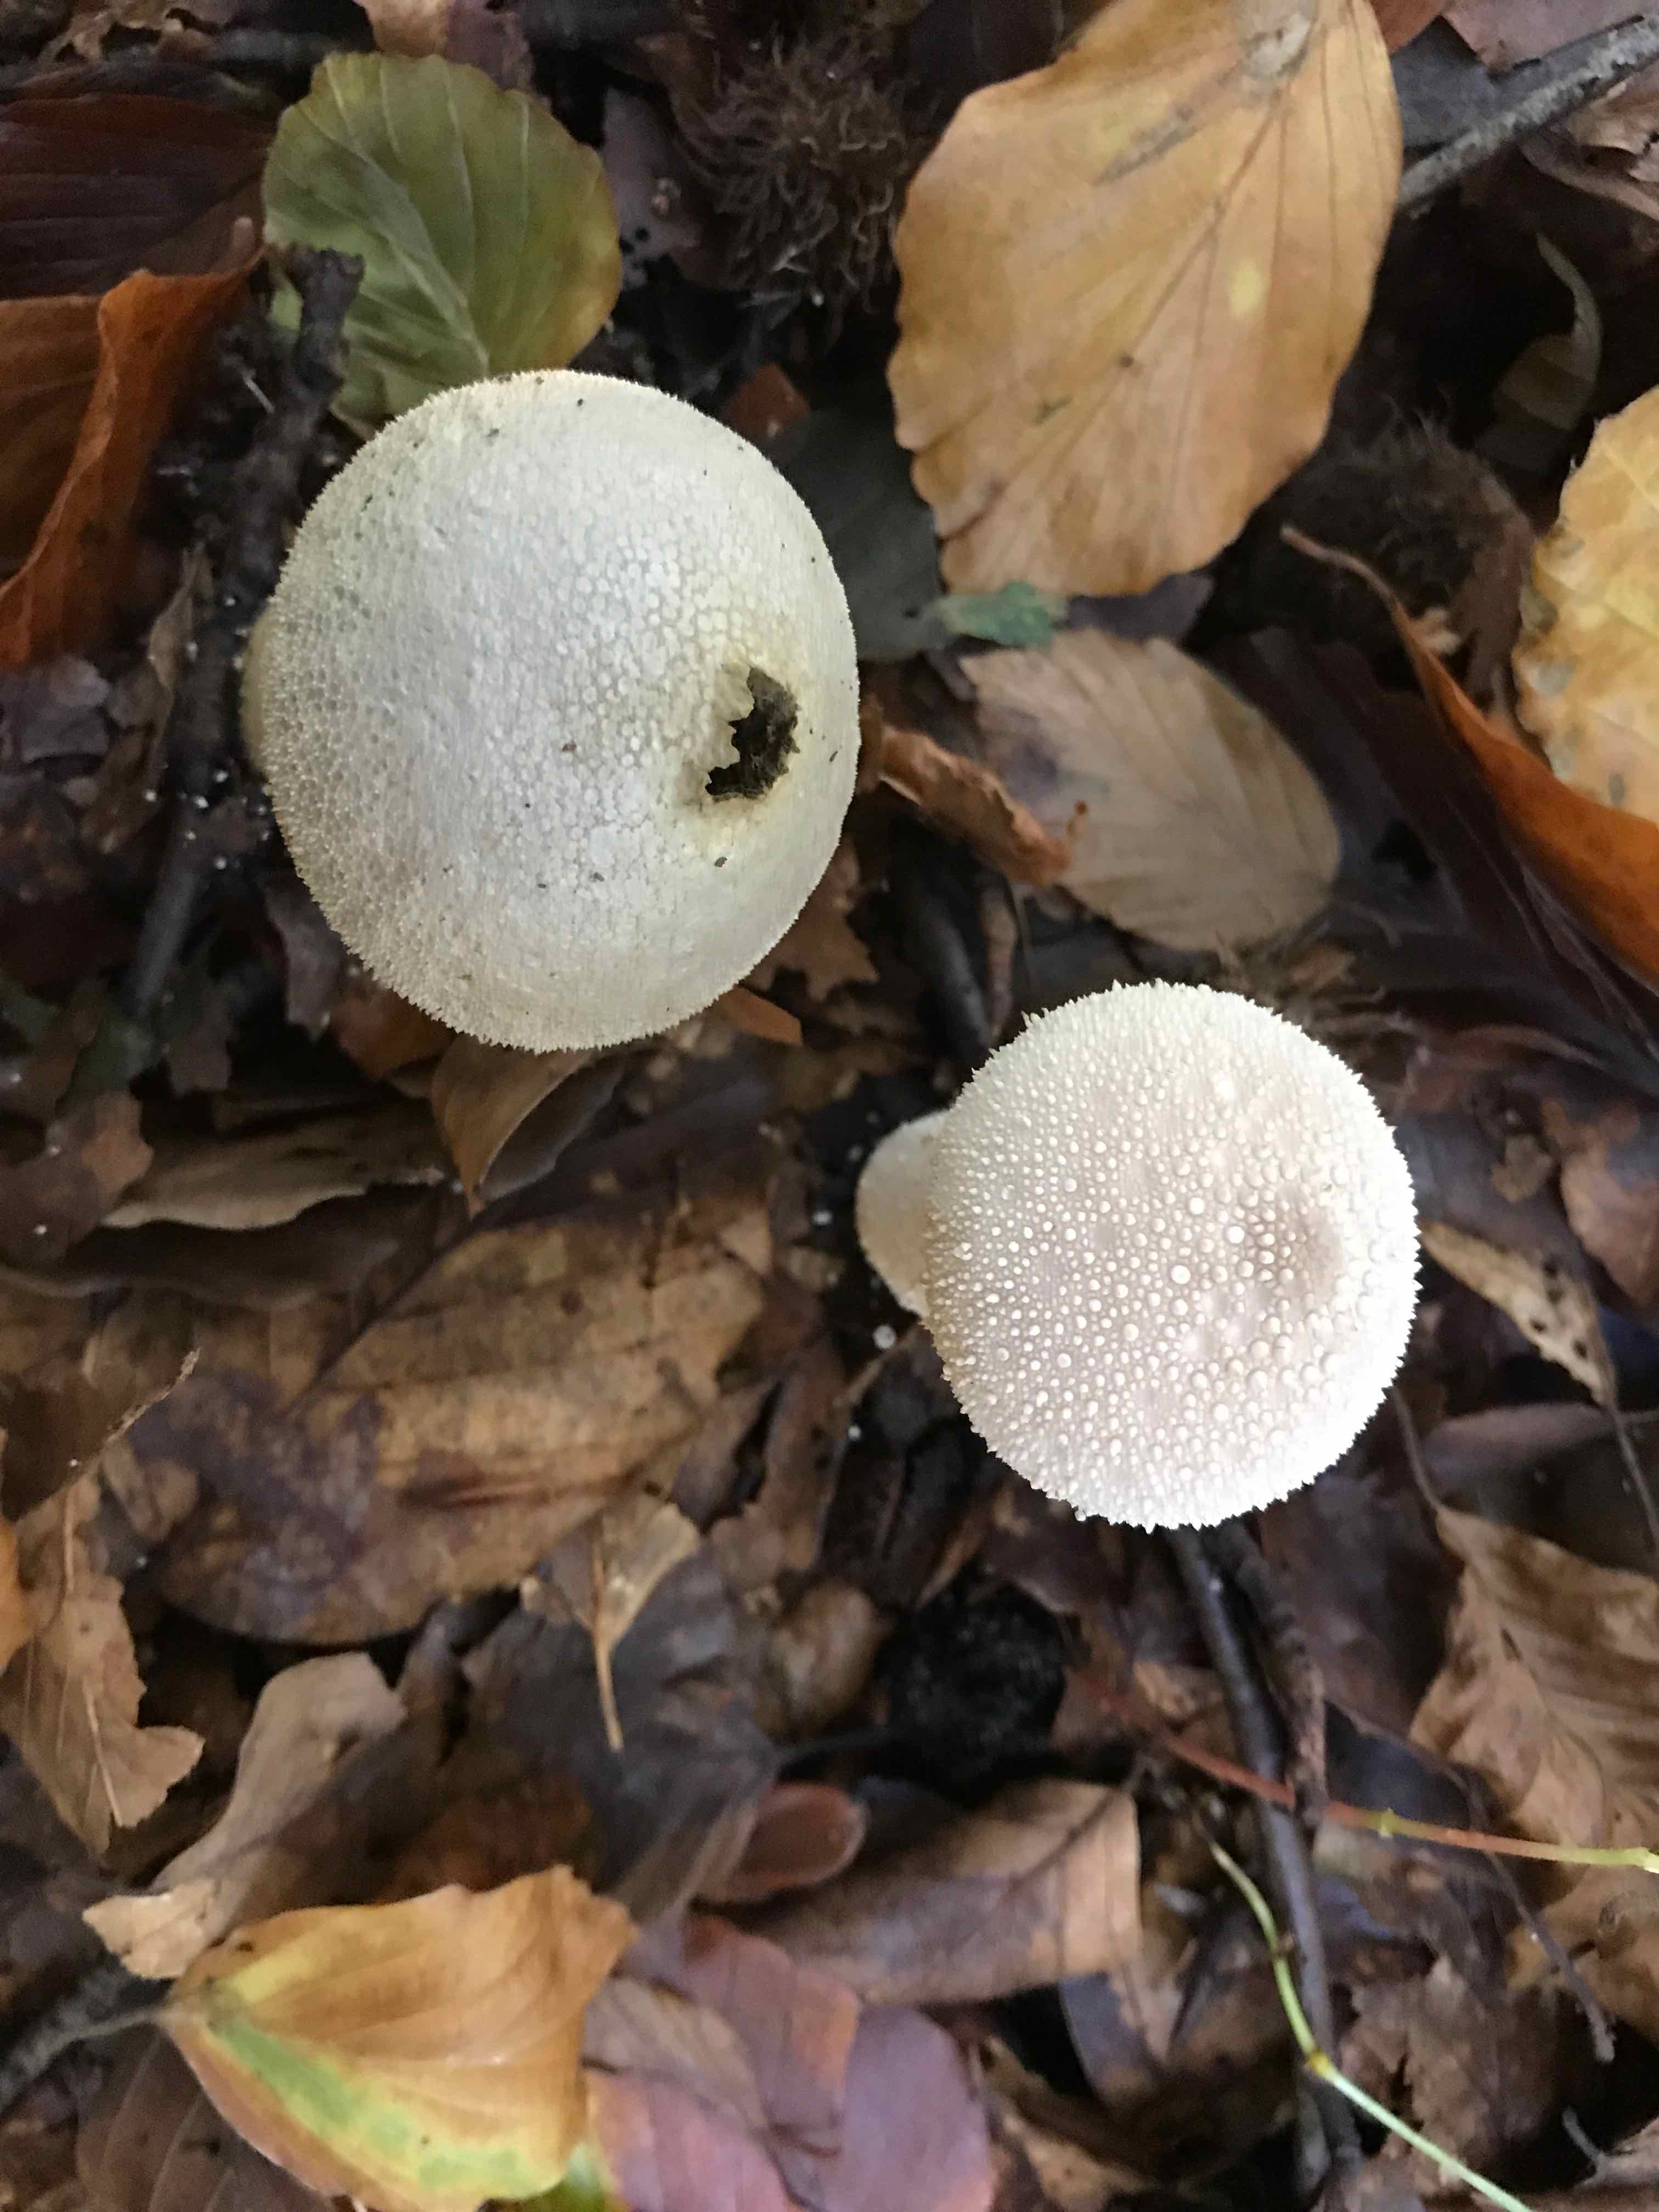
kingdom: Fungi
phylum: Basidiomycota
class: Agaricomycetes
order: Agaricales
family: Lycoperdaceae
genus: Lycoperdon
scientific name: Lycoperdon perlatum
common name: krystal-støvbold
